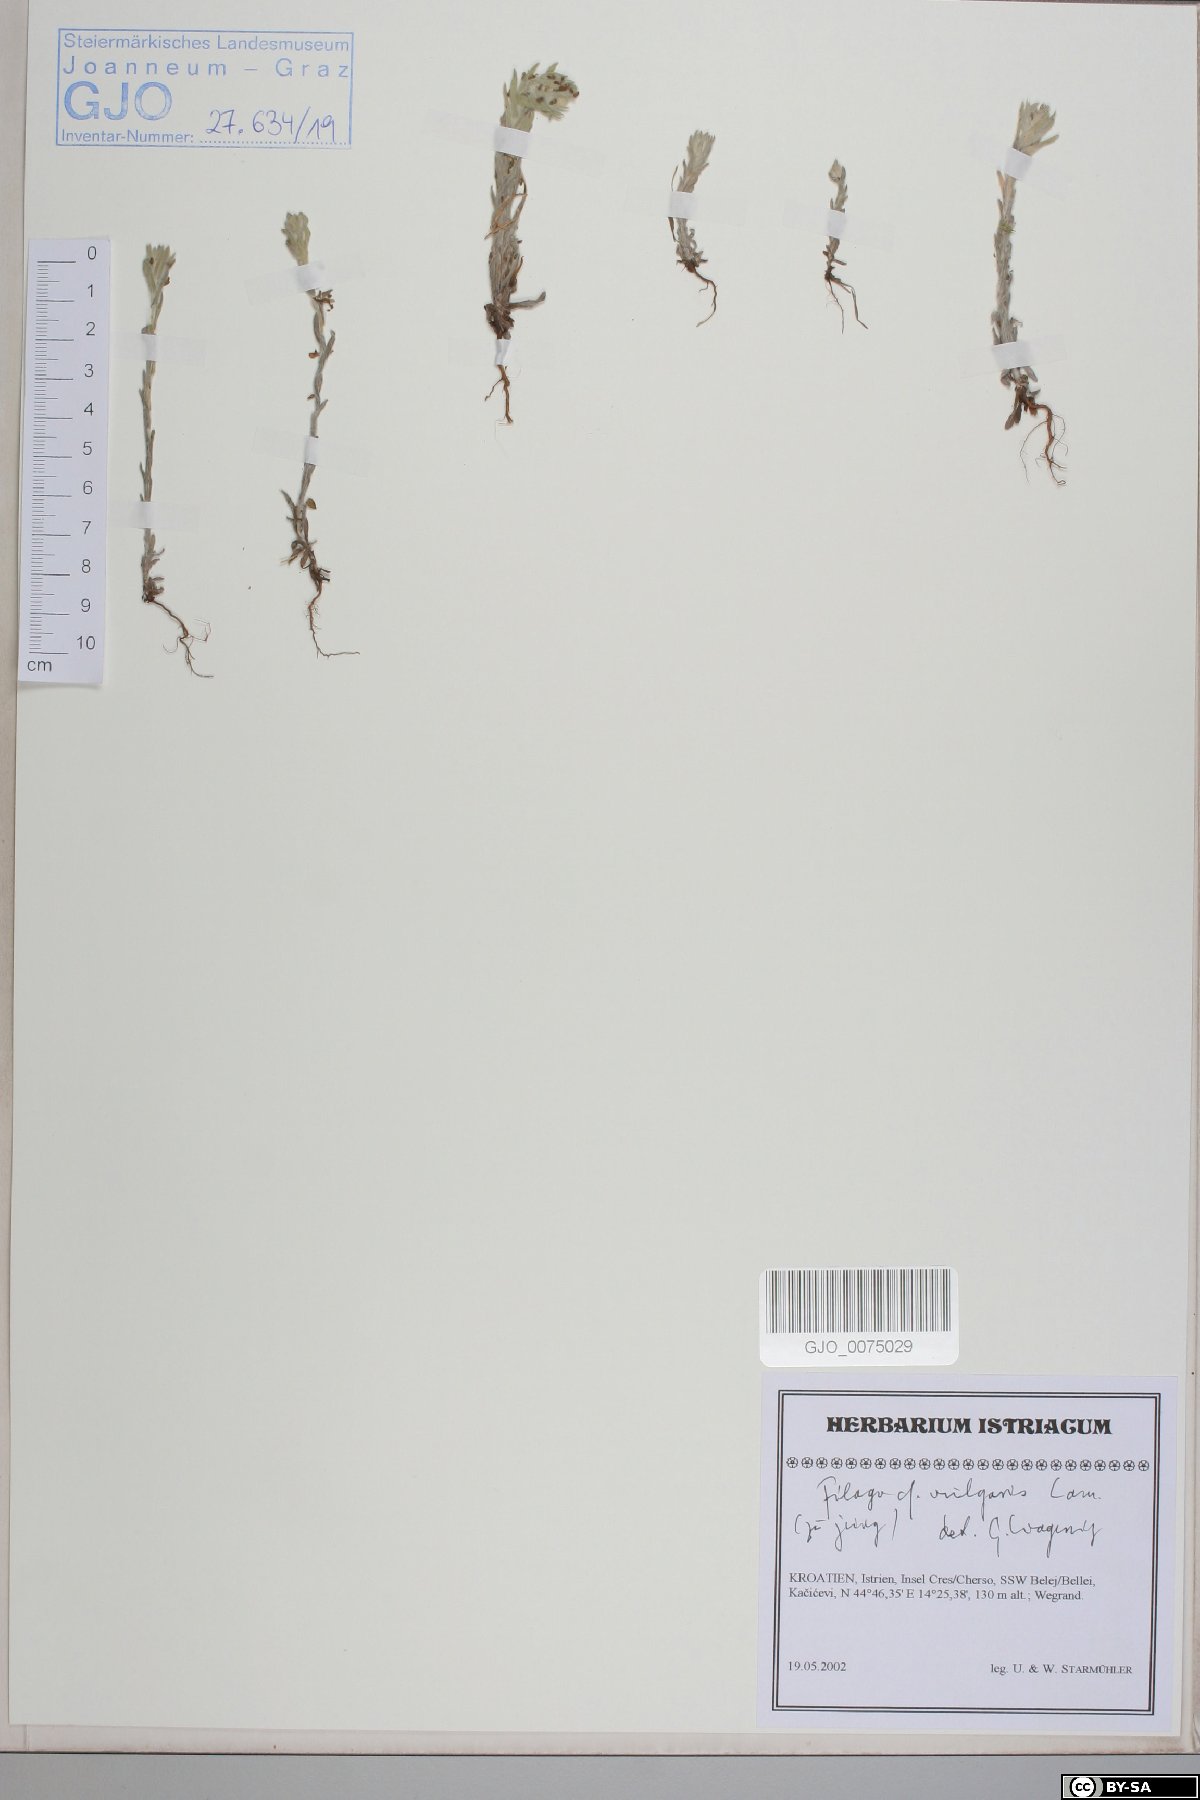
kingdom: Plantae
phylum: Tracheophyta
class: Magnoliopsida
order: Asterales
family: Asteraceae
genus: Filago
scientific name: Filago germanica
